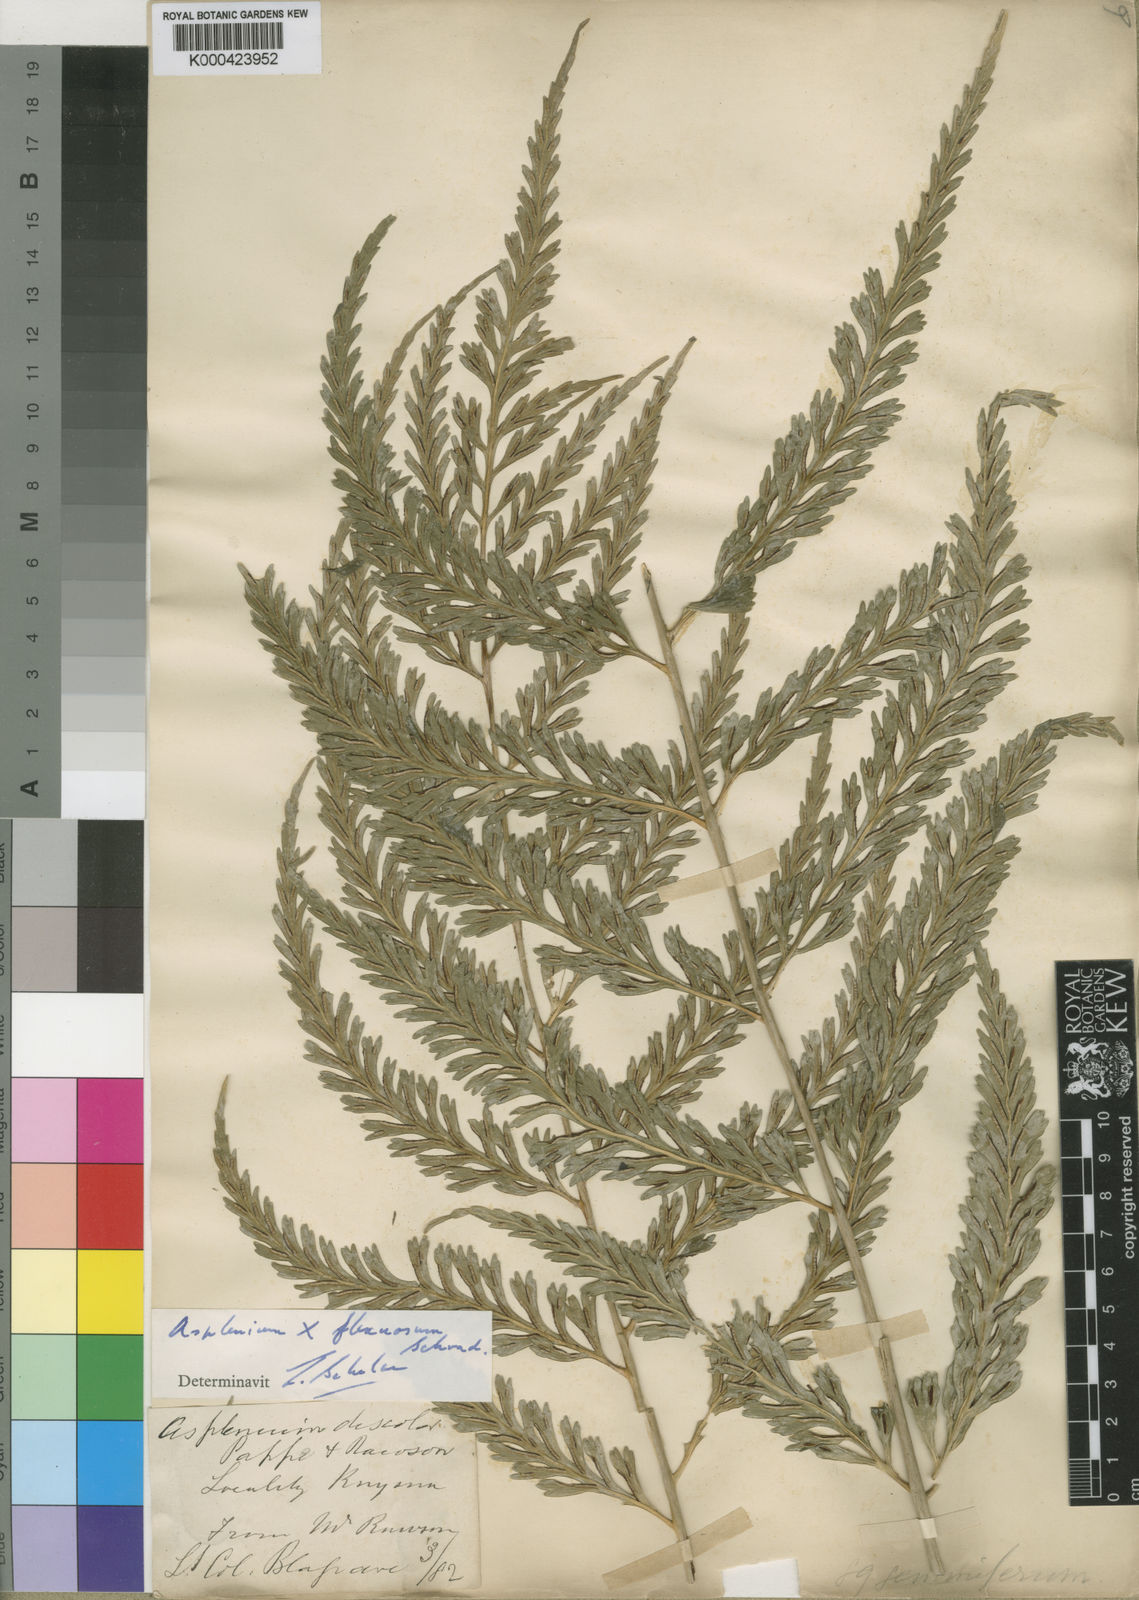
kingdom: Plantae
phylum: Tracheophyta
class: Polypodiopsida
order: Polypodiales
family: Aspleniaceae
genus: Asplenium
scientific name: Asplenium flexuosum
